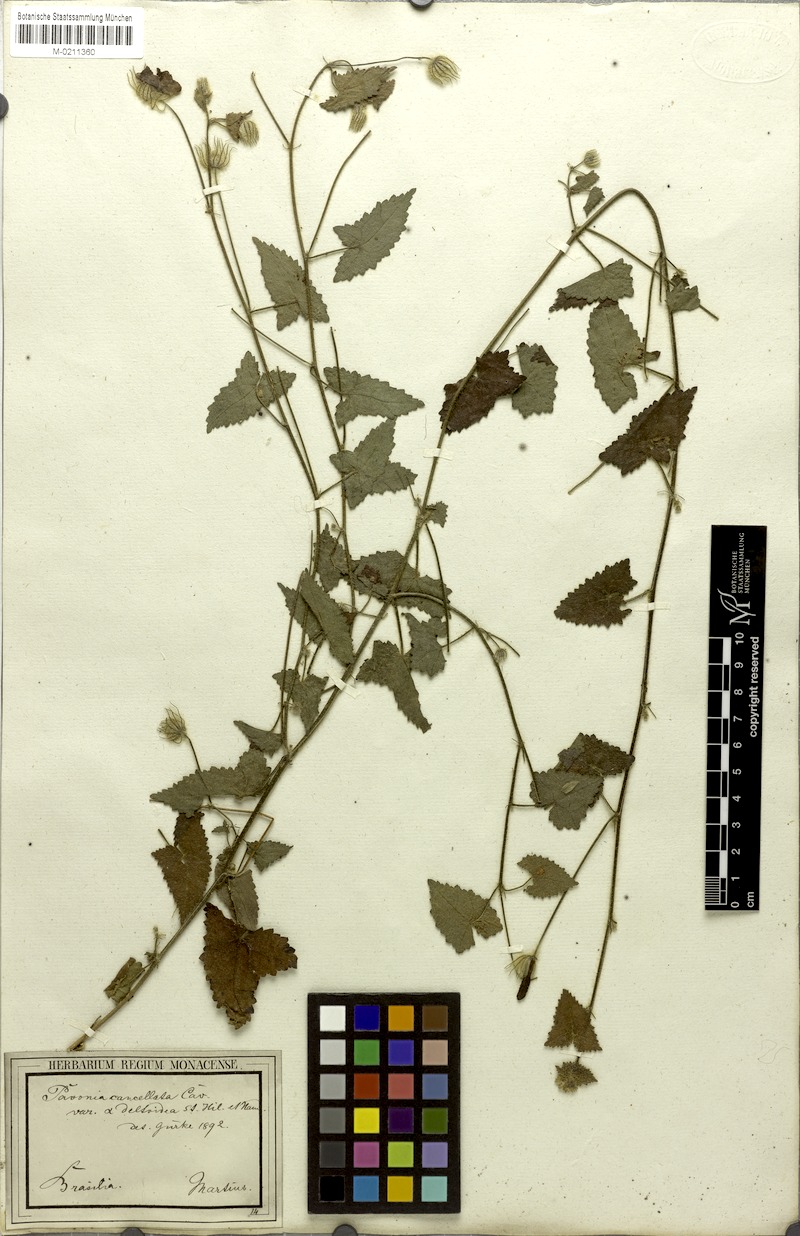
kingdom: Plantae
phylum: Tracheophyta
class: Magnoliopsida
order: Malvales
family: Malvaceae
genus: Pavonia
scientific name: Pavonia cancellata
